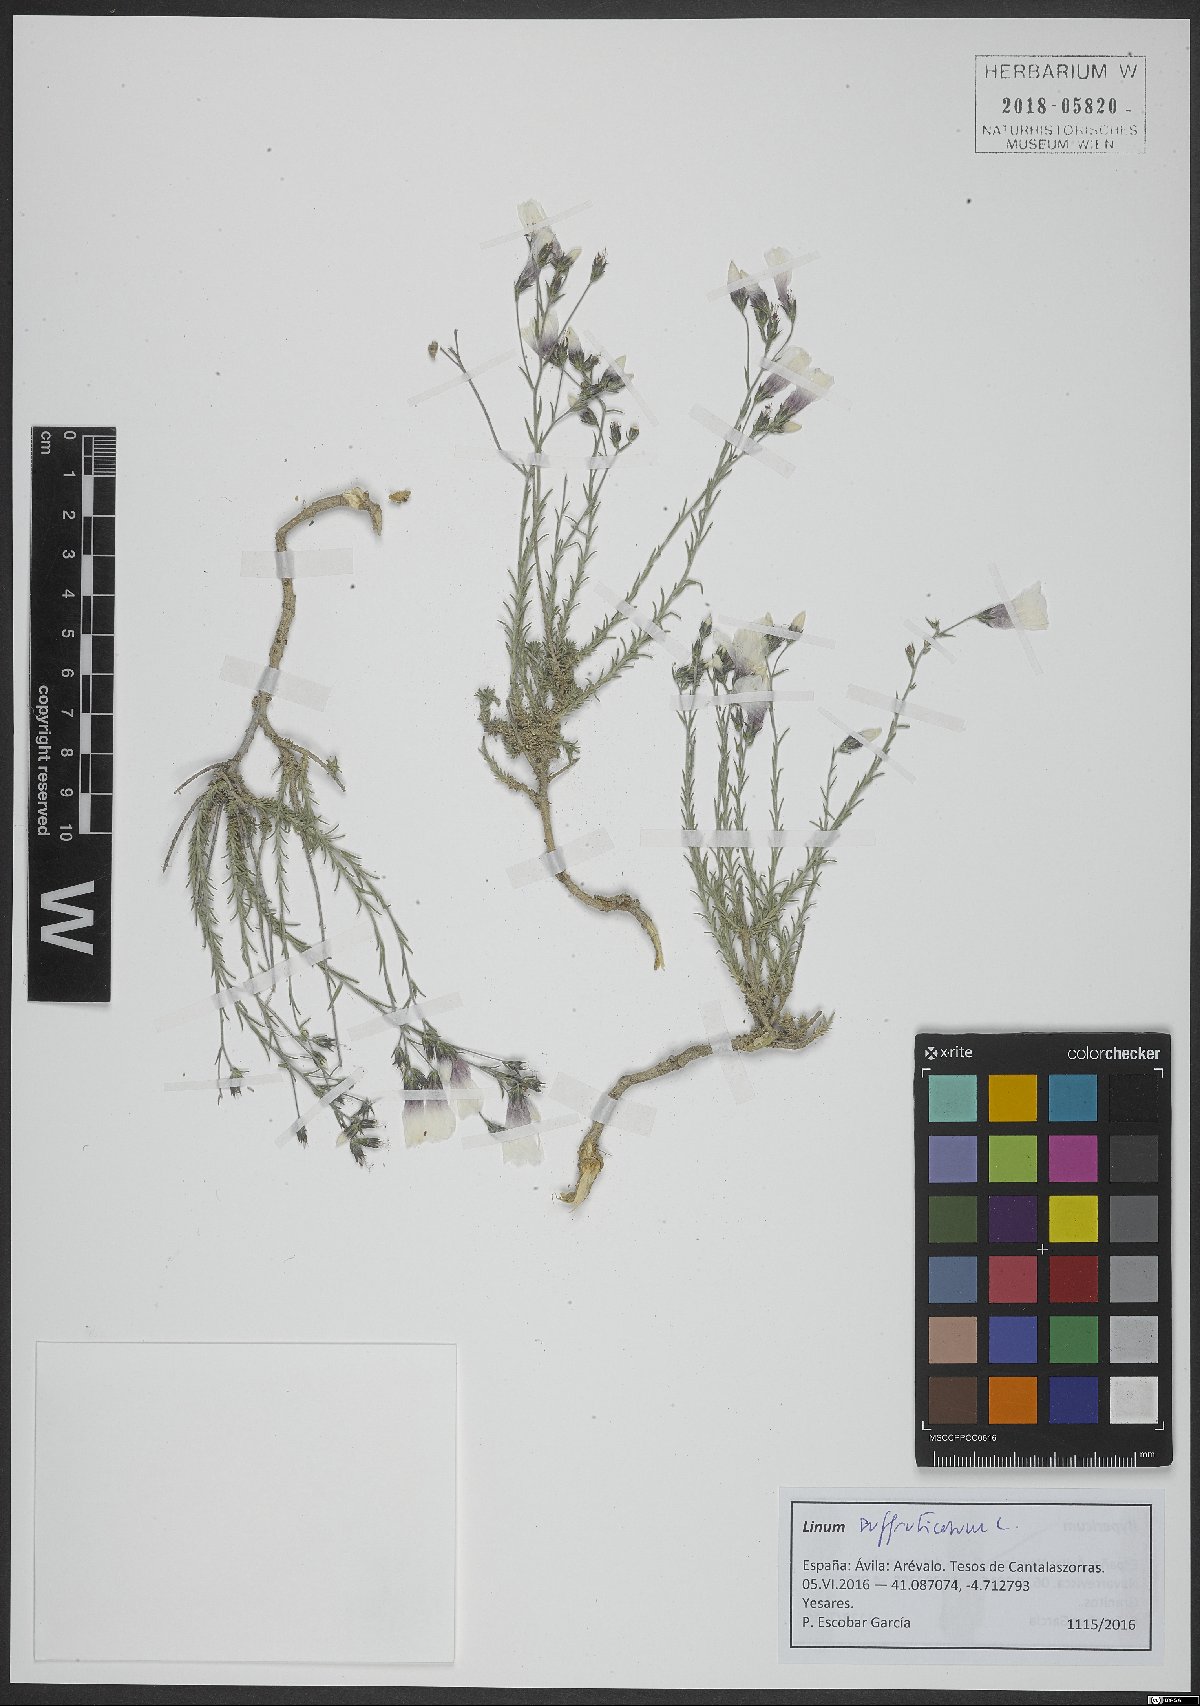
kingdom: Plantae
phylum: Tracheophyta
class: Magnoliopsida
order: Malpighiales
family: Linaceae
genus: Linum
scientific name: Linum suffruticosum
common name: White flax
